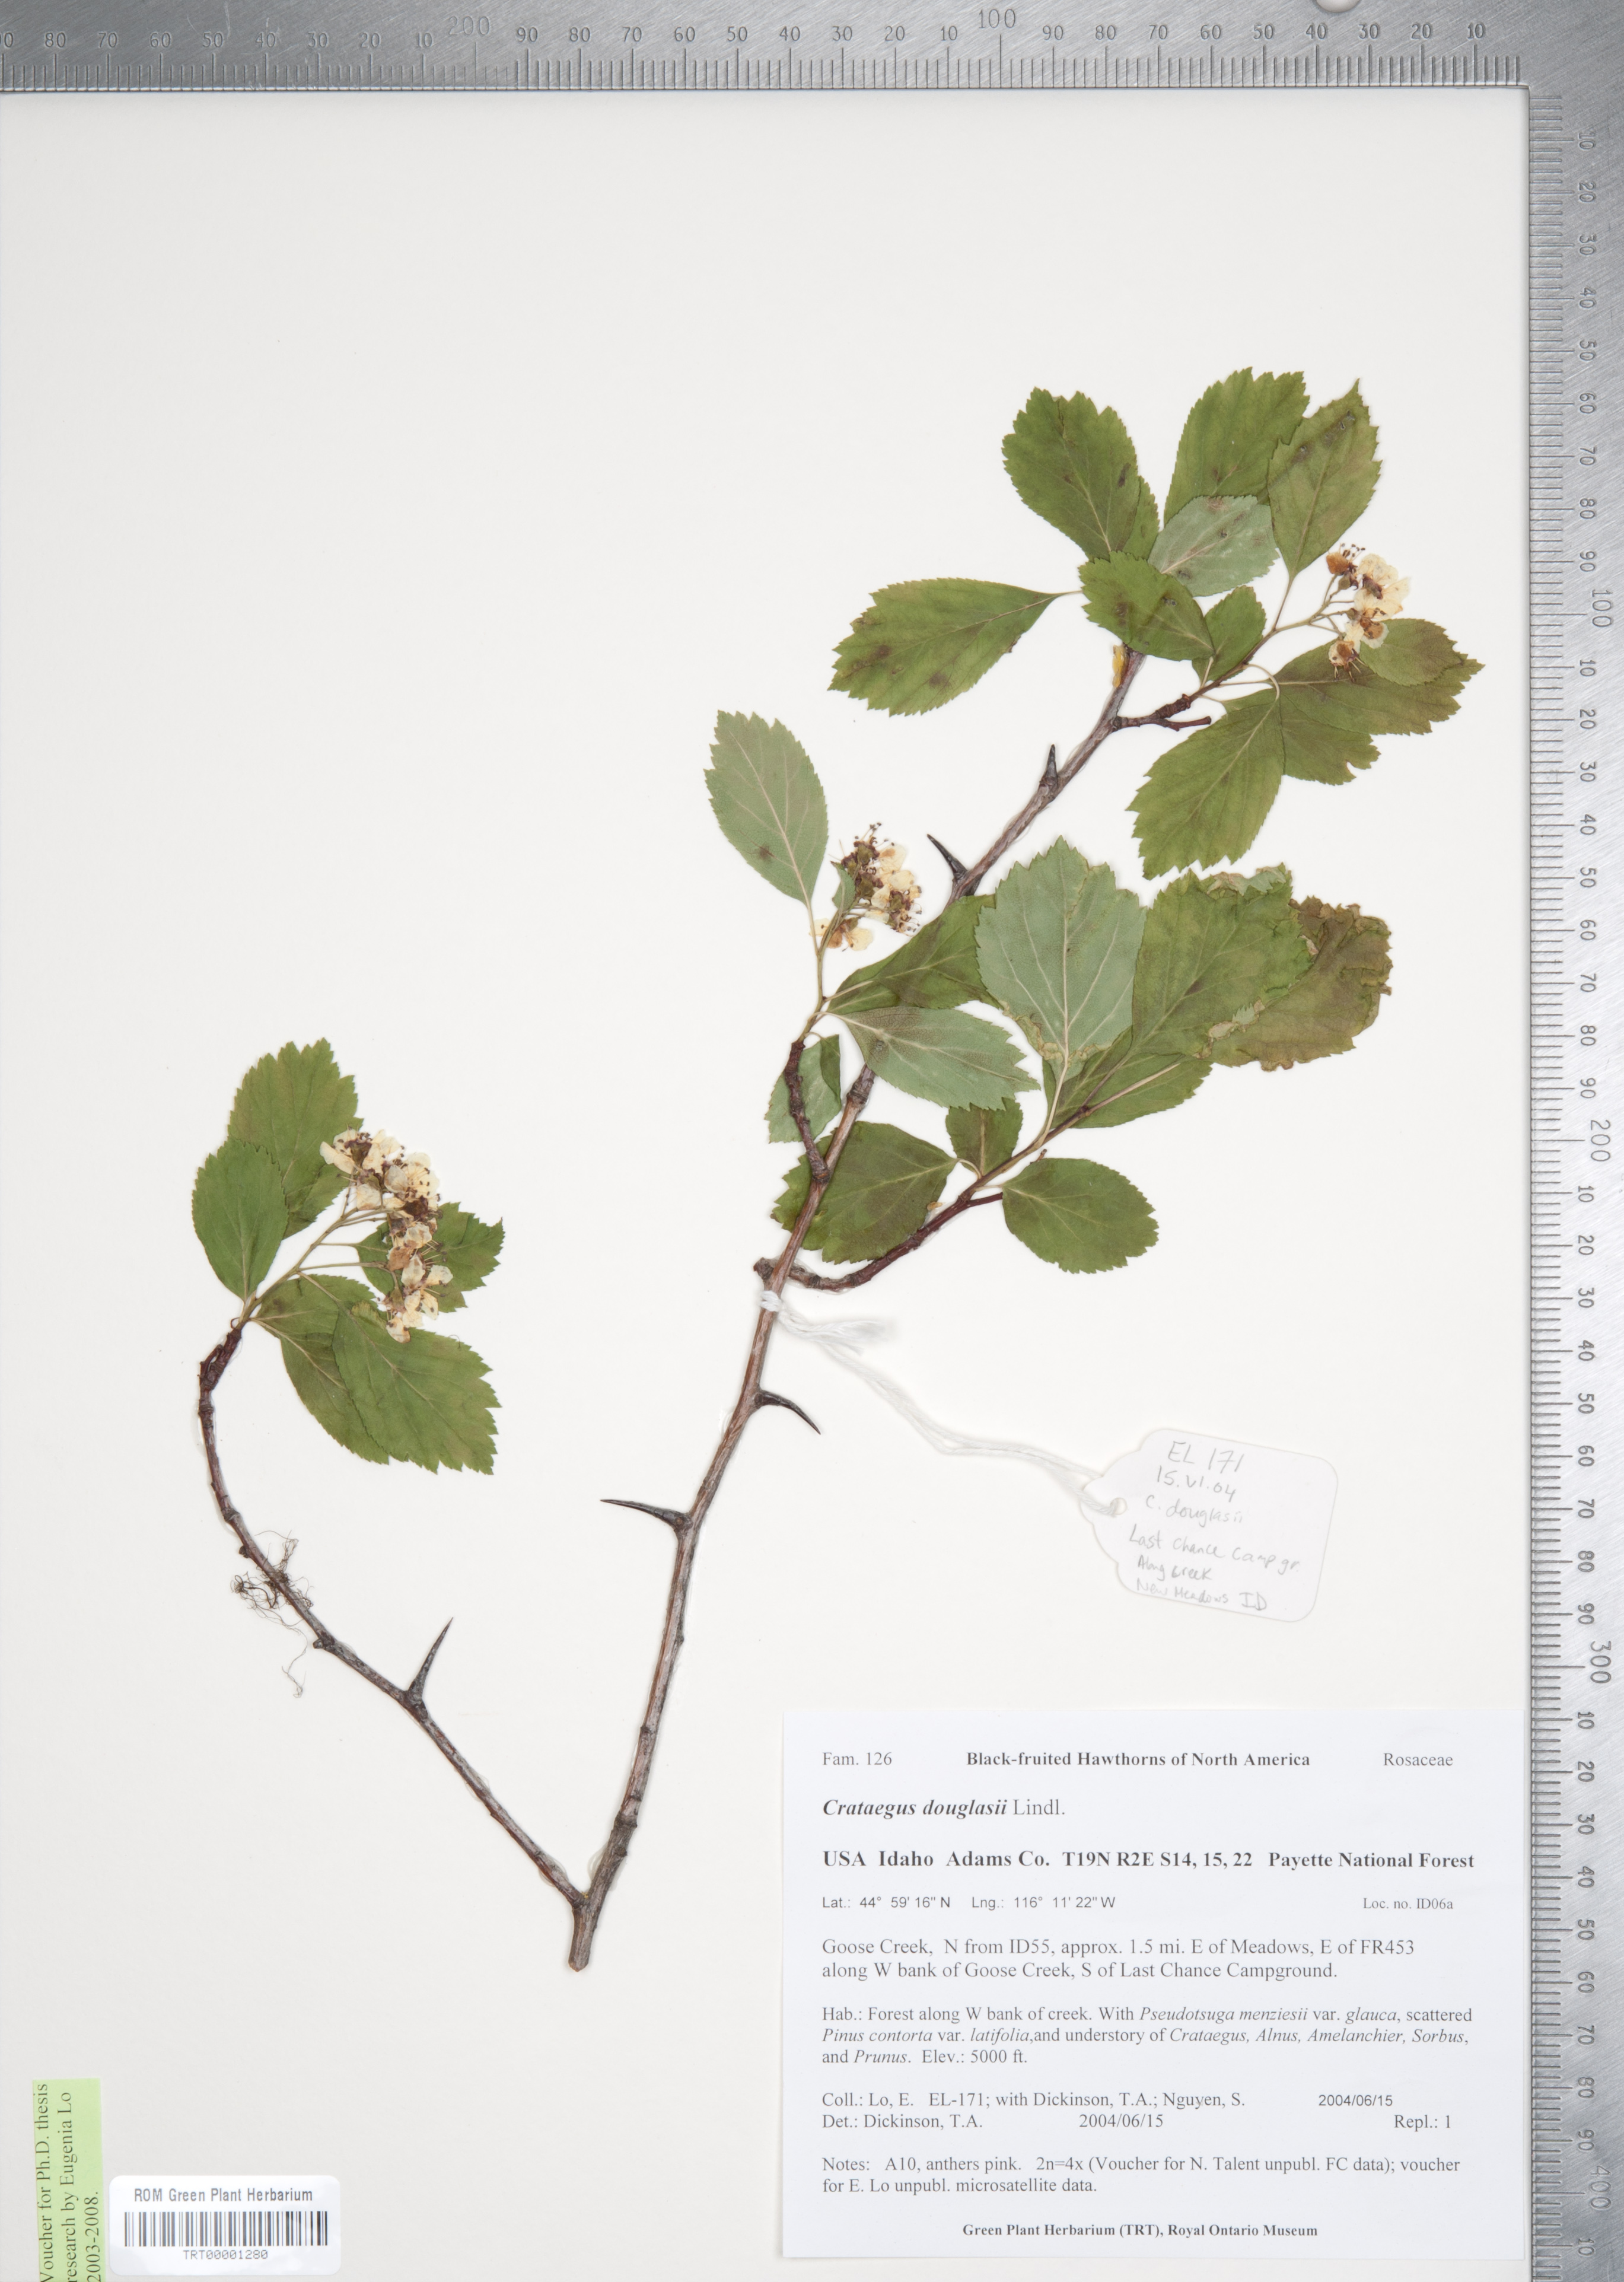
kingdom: Plantae
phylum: Tracheophyta
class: Magnoliopsida
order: Rosales
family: Rosaceae
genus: Crataegus
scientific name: Crataegus douglasii
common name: Black hawthorn
